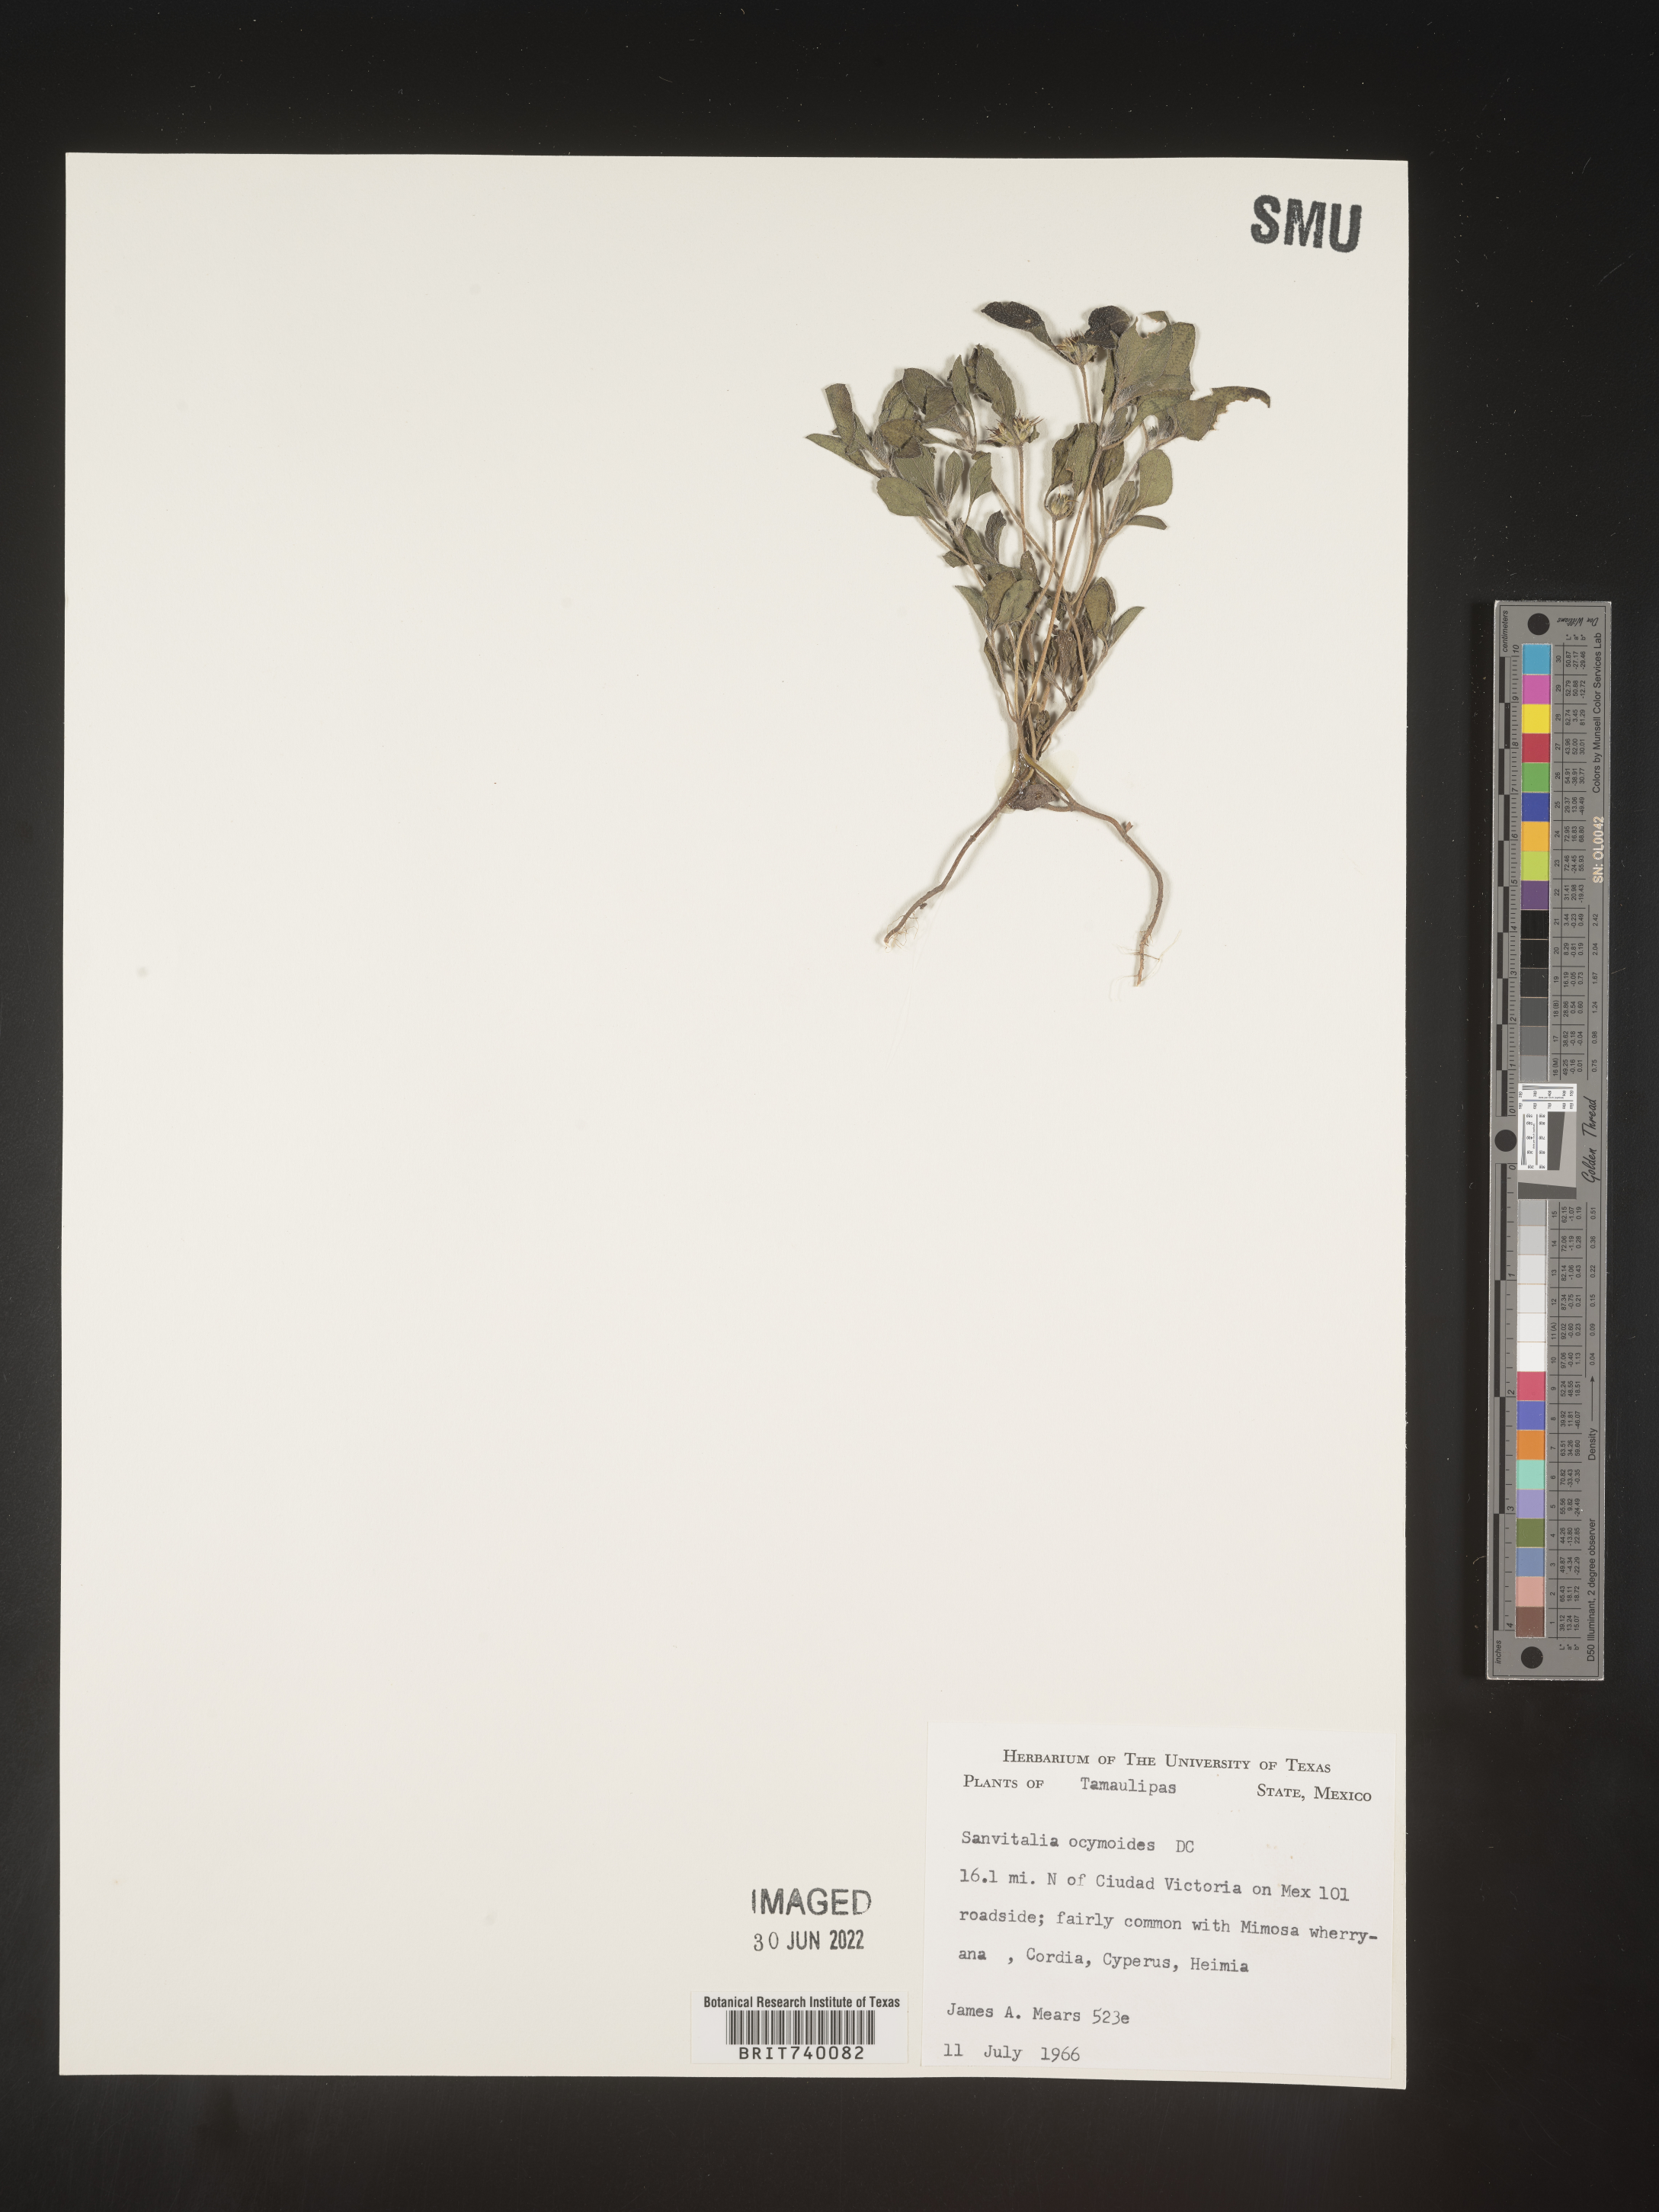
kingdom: Plantae
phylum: Tracheophyta
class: Magnoliopsida
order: Asterales
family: Asteraceae
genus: Sanvitalia
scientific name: Sanvitalia
